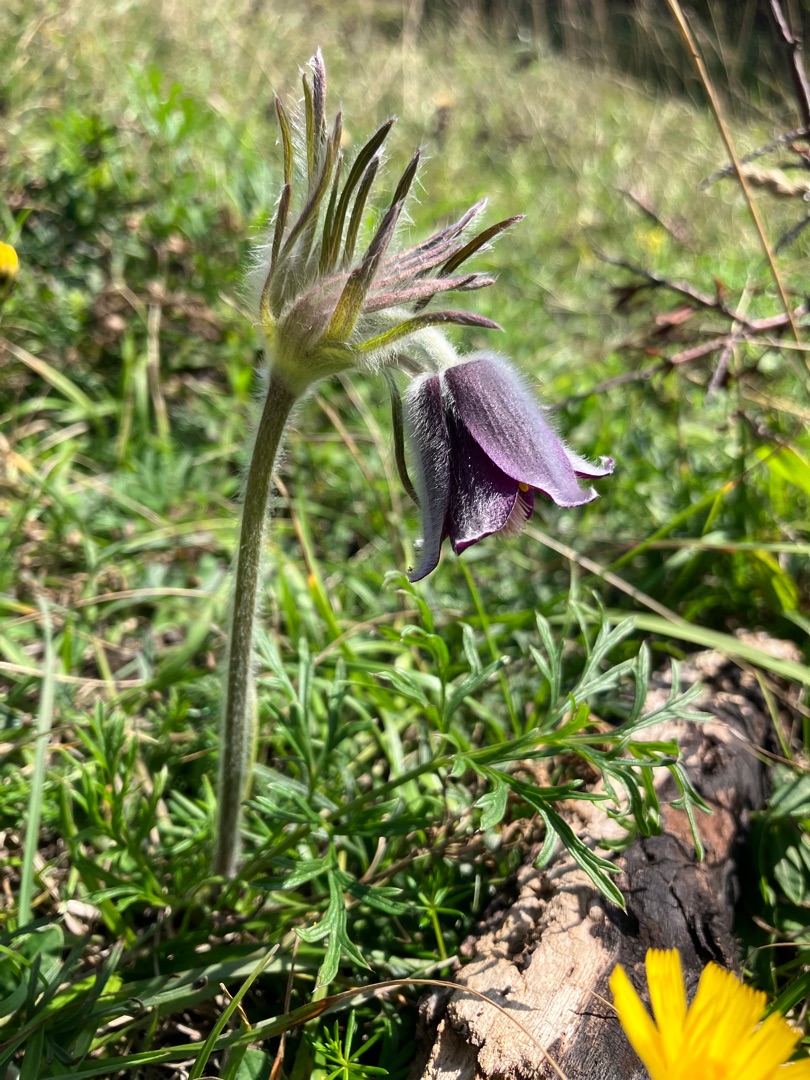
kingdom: Plantae
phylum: Tracheophyta
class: Magnoliopsida
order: Ranunculales
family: Ranunculaceae
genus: Pulsatilla
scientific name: Pulsatilla pratensis
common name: Nikkende kobjælde
